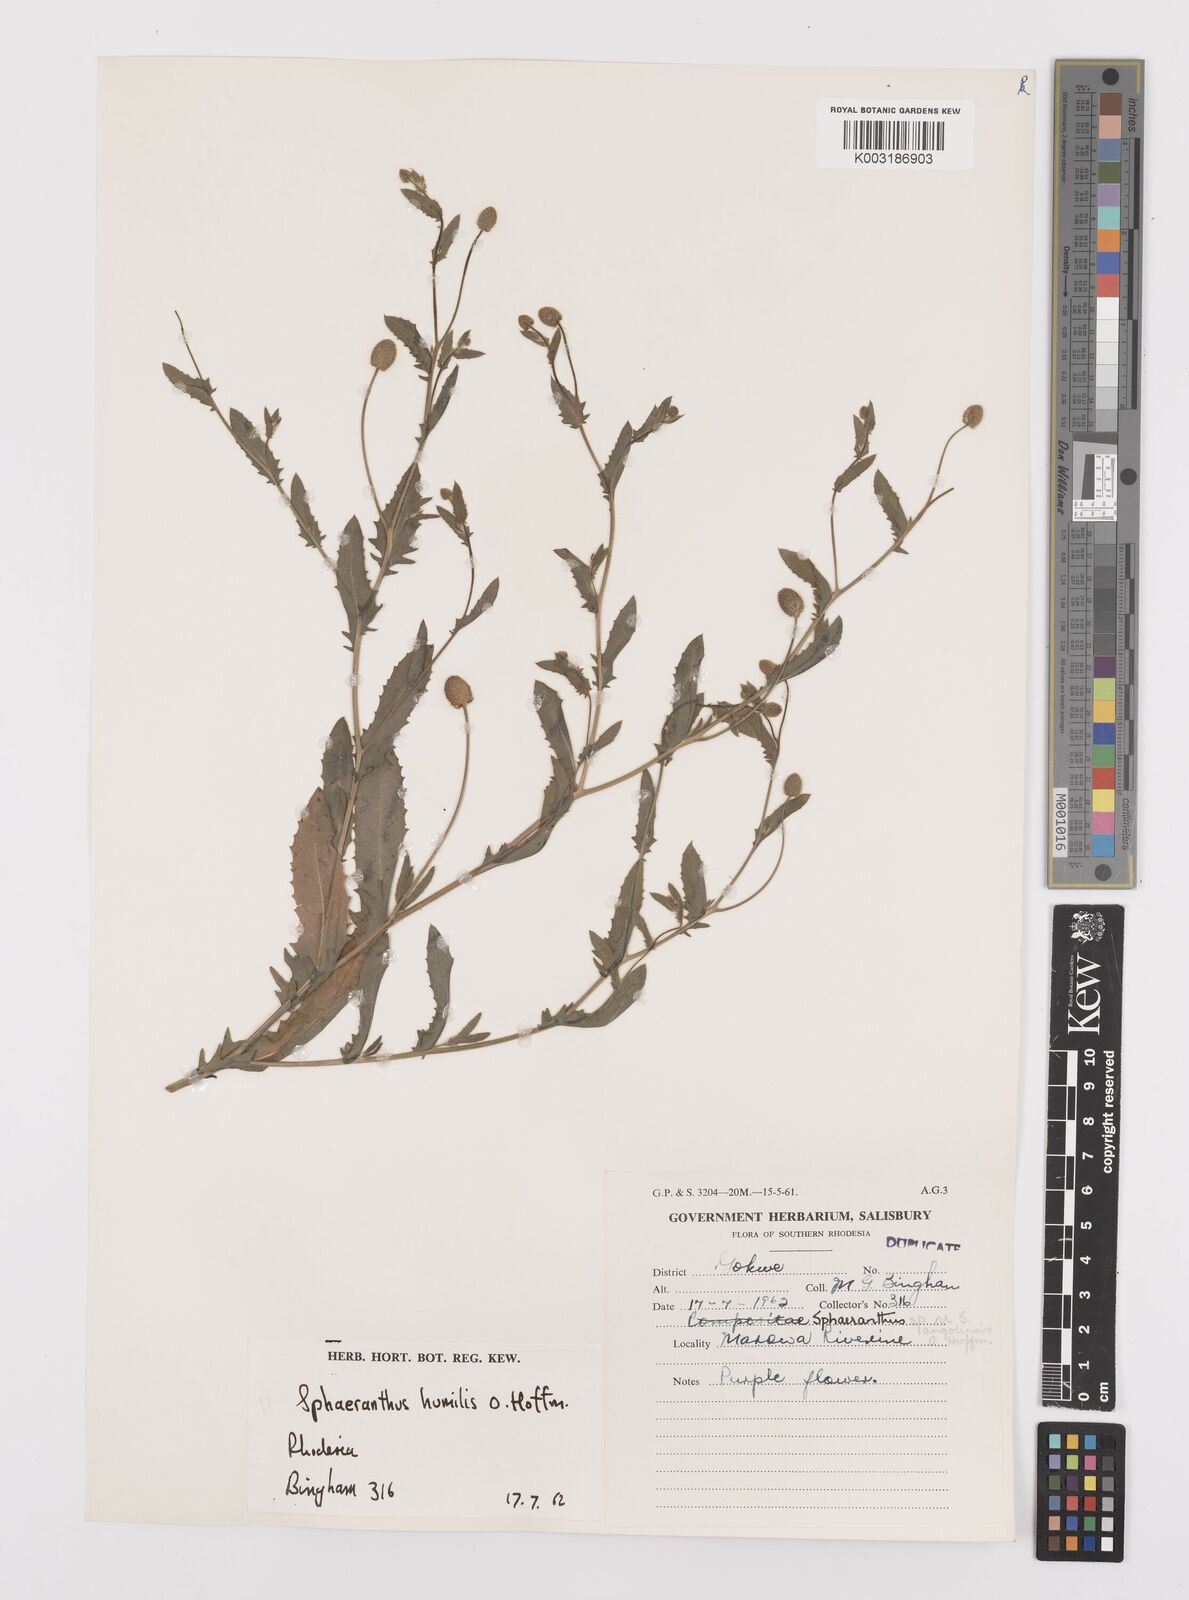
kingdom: Plantae
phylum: Tracheophyta
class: Magnoliopsida
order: Asterales
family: Asteraceae
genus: Sphaeranthus
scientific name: Sphaeranthus flexuosus
